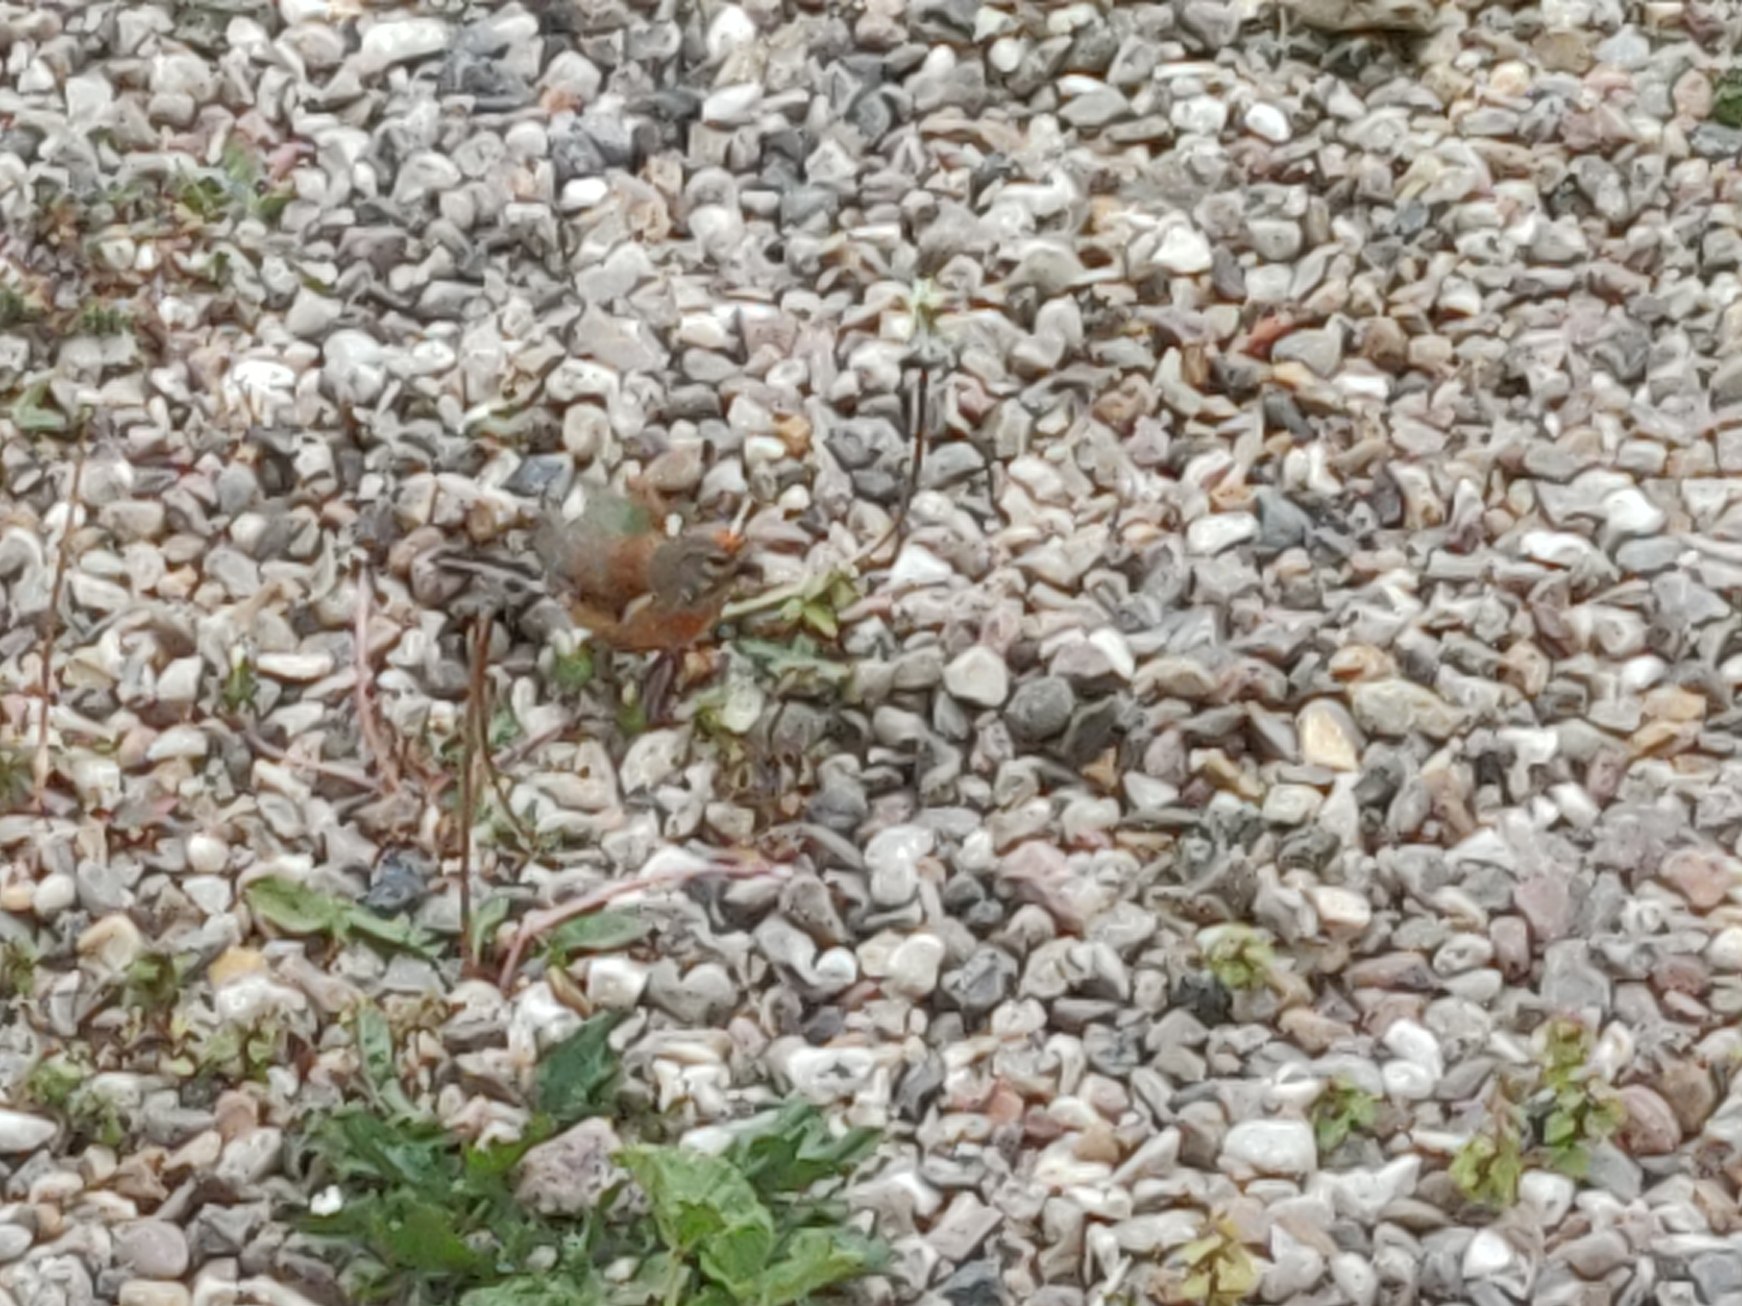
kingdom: Animalia
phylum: Chordata
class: Aves
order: Passeriformes
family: Fringillidae
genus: Linaria
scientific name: Linaria cannabina
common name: Tornirisk
